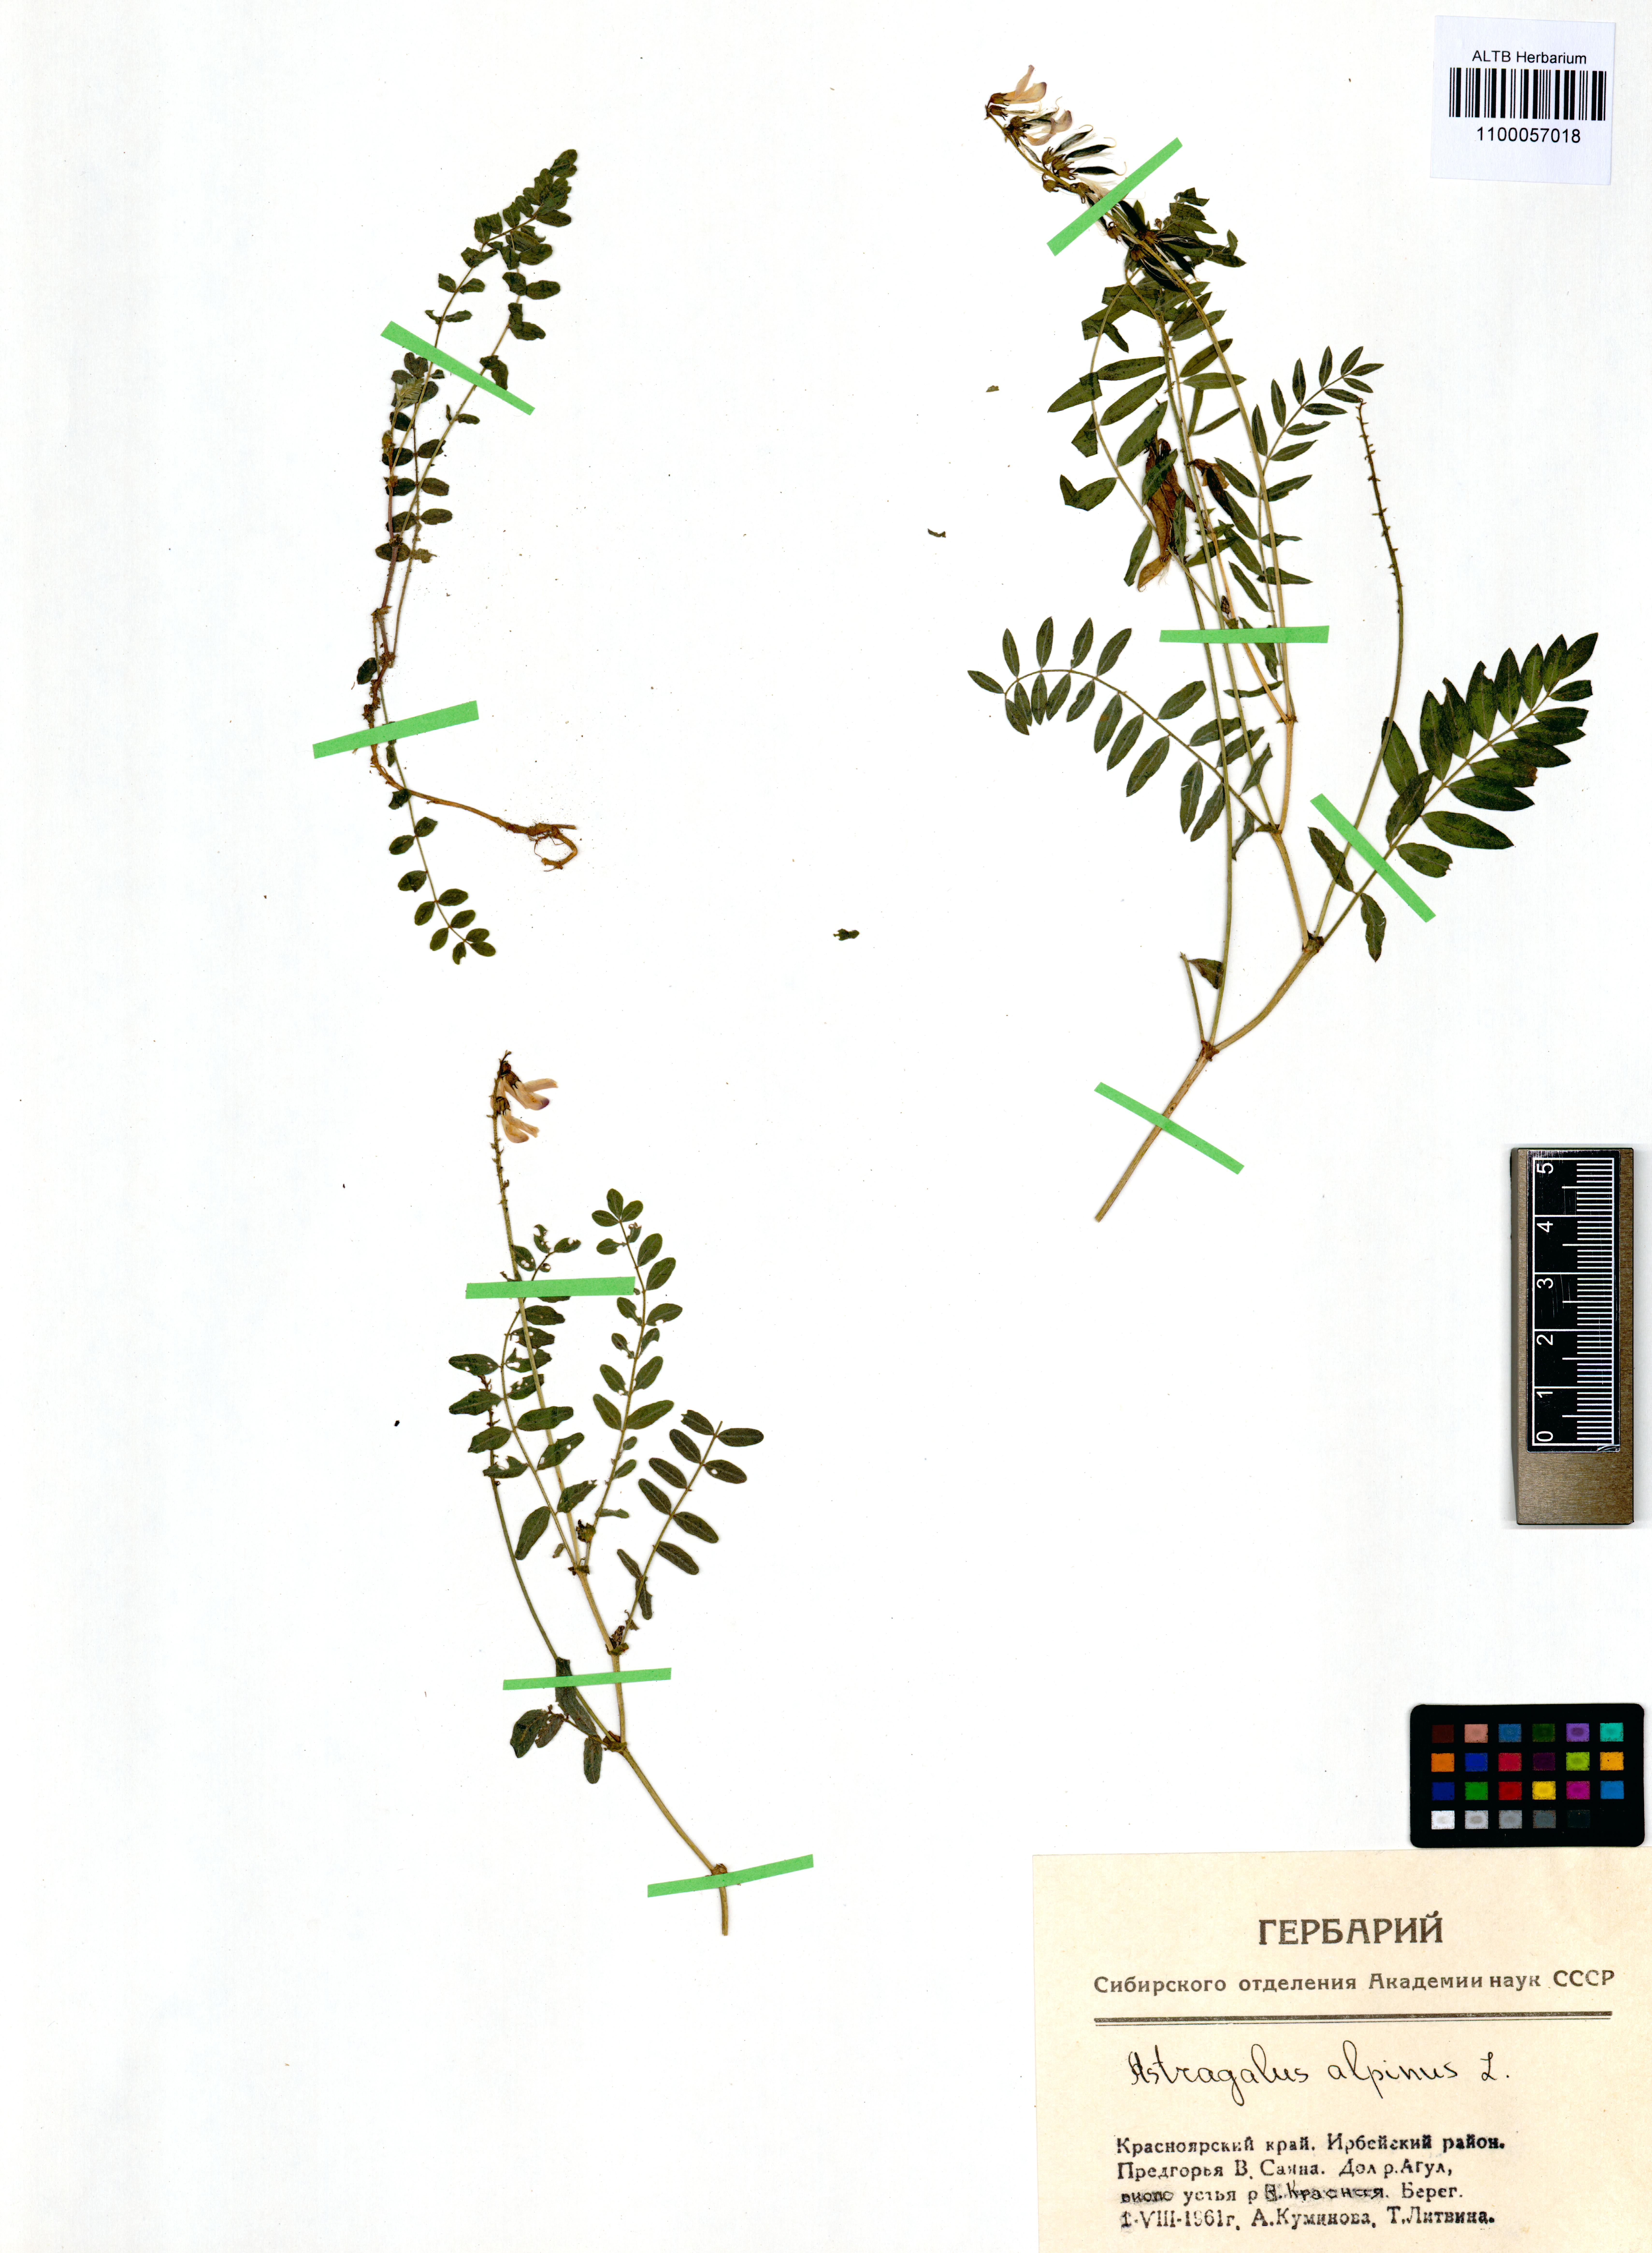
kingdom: Plantae
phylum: Tracheophyta
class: Magnoliopsida
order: Fabales
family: Fabaceae
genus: Astragalus
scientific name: Astragalus alpinus
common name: Alpine milk-vetch
